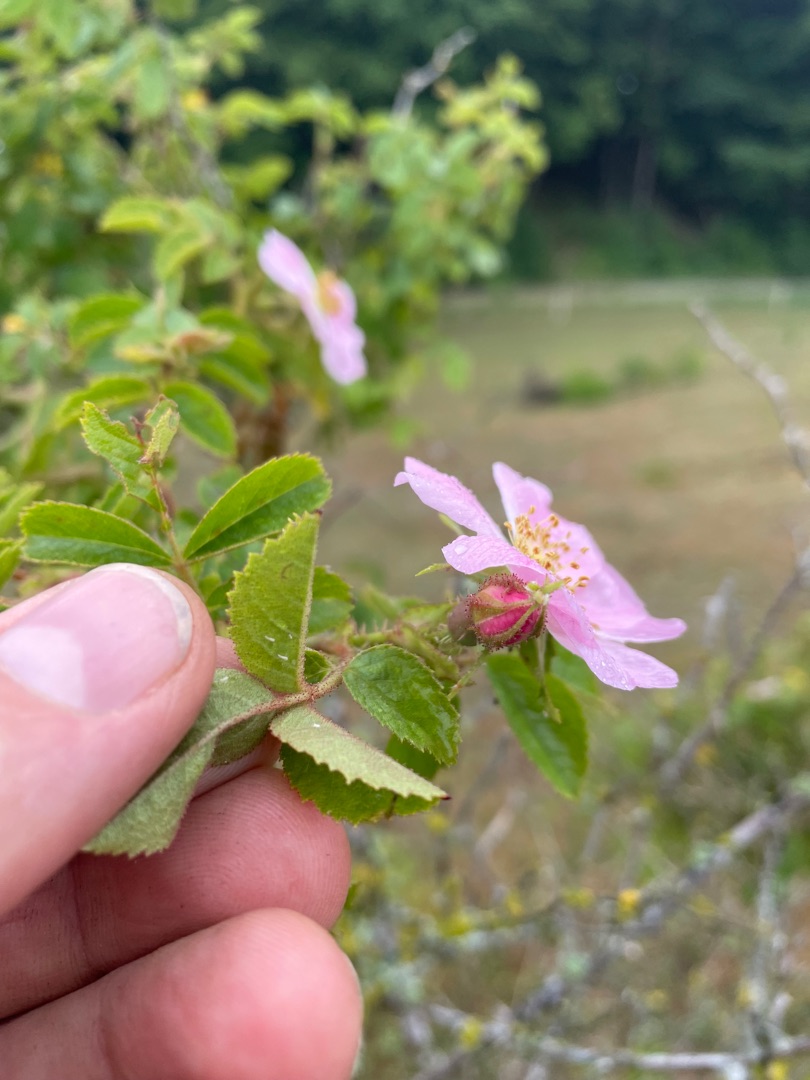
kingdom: Plantae
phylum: Tracheophyta
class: Magnoliopsida
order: Rosales
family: Rosaceae
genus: Rosa
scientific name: Rosa rubiginosa
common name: Æble-rose
